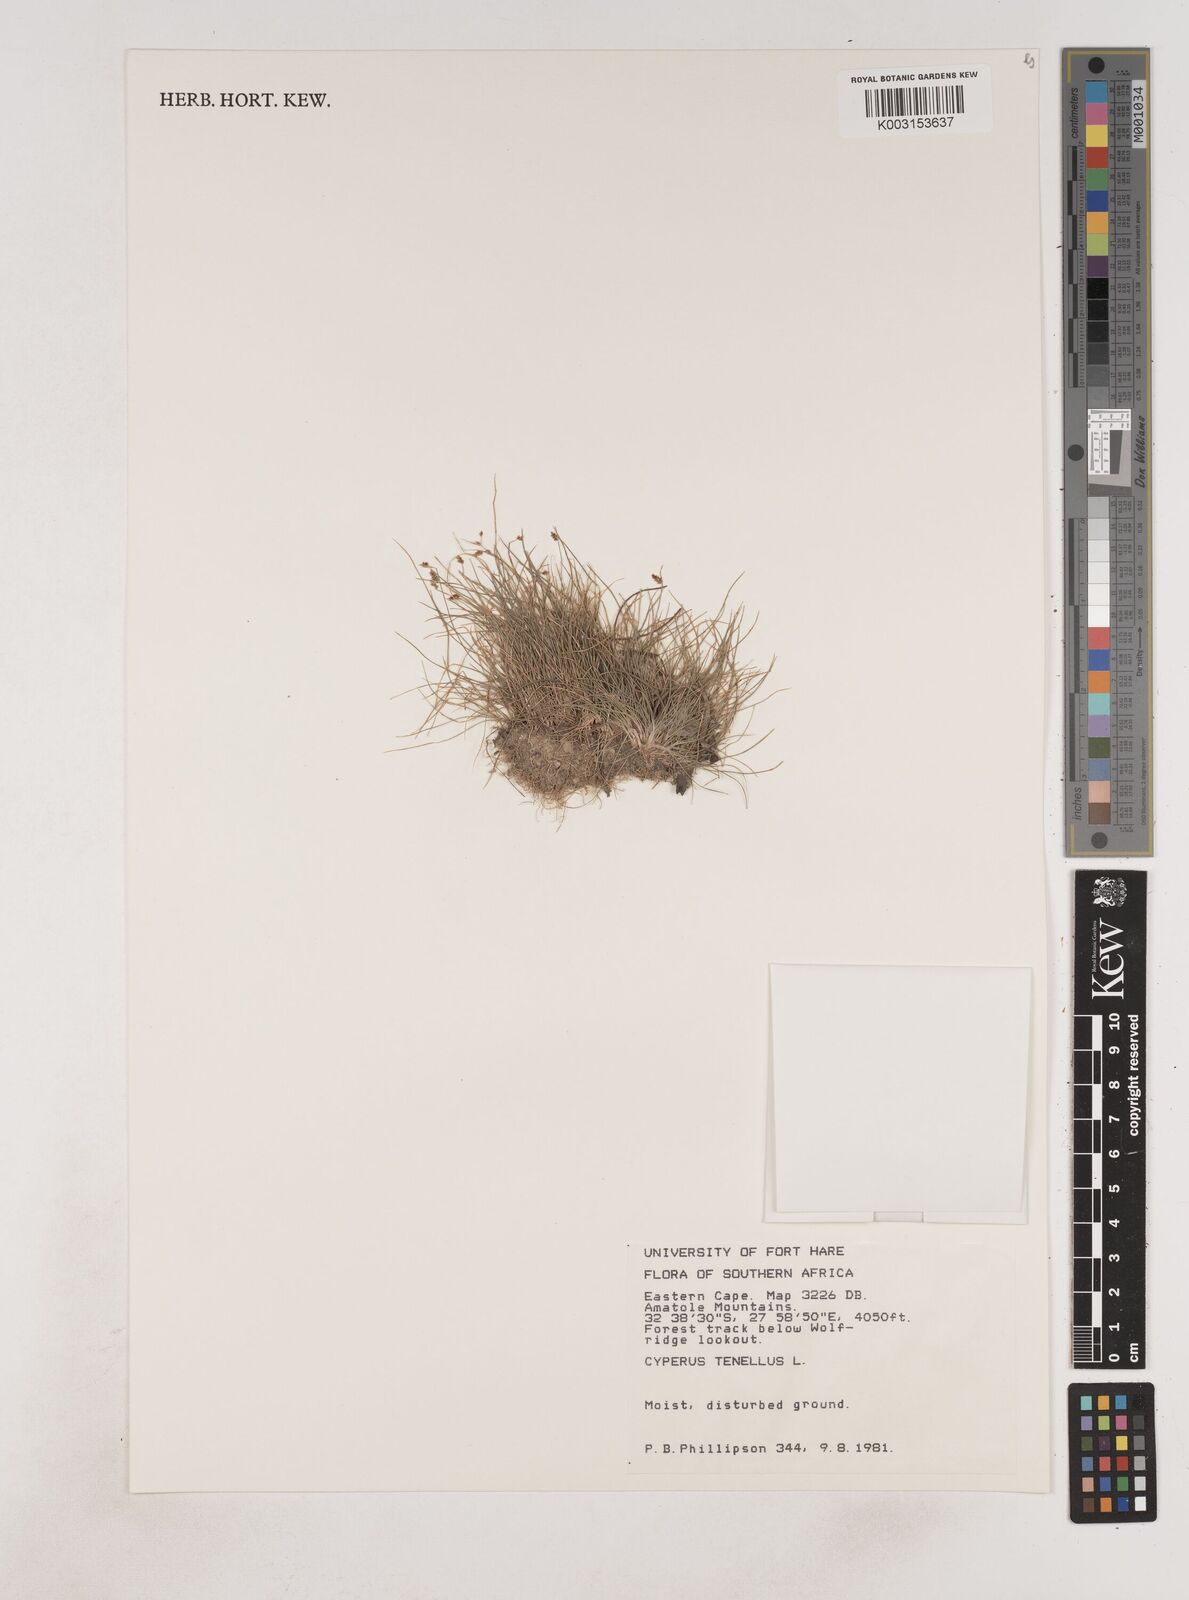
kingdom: Plantae
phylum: Tracheophyta
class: Liliopsida
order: Poales
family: Cyperaceae
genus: Isolepis
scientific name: Isolepis levynsiana
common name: Sedge
